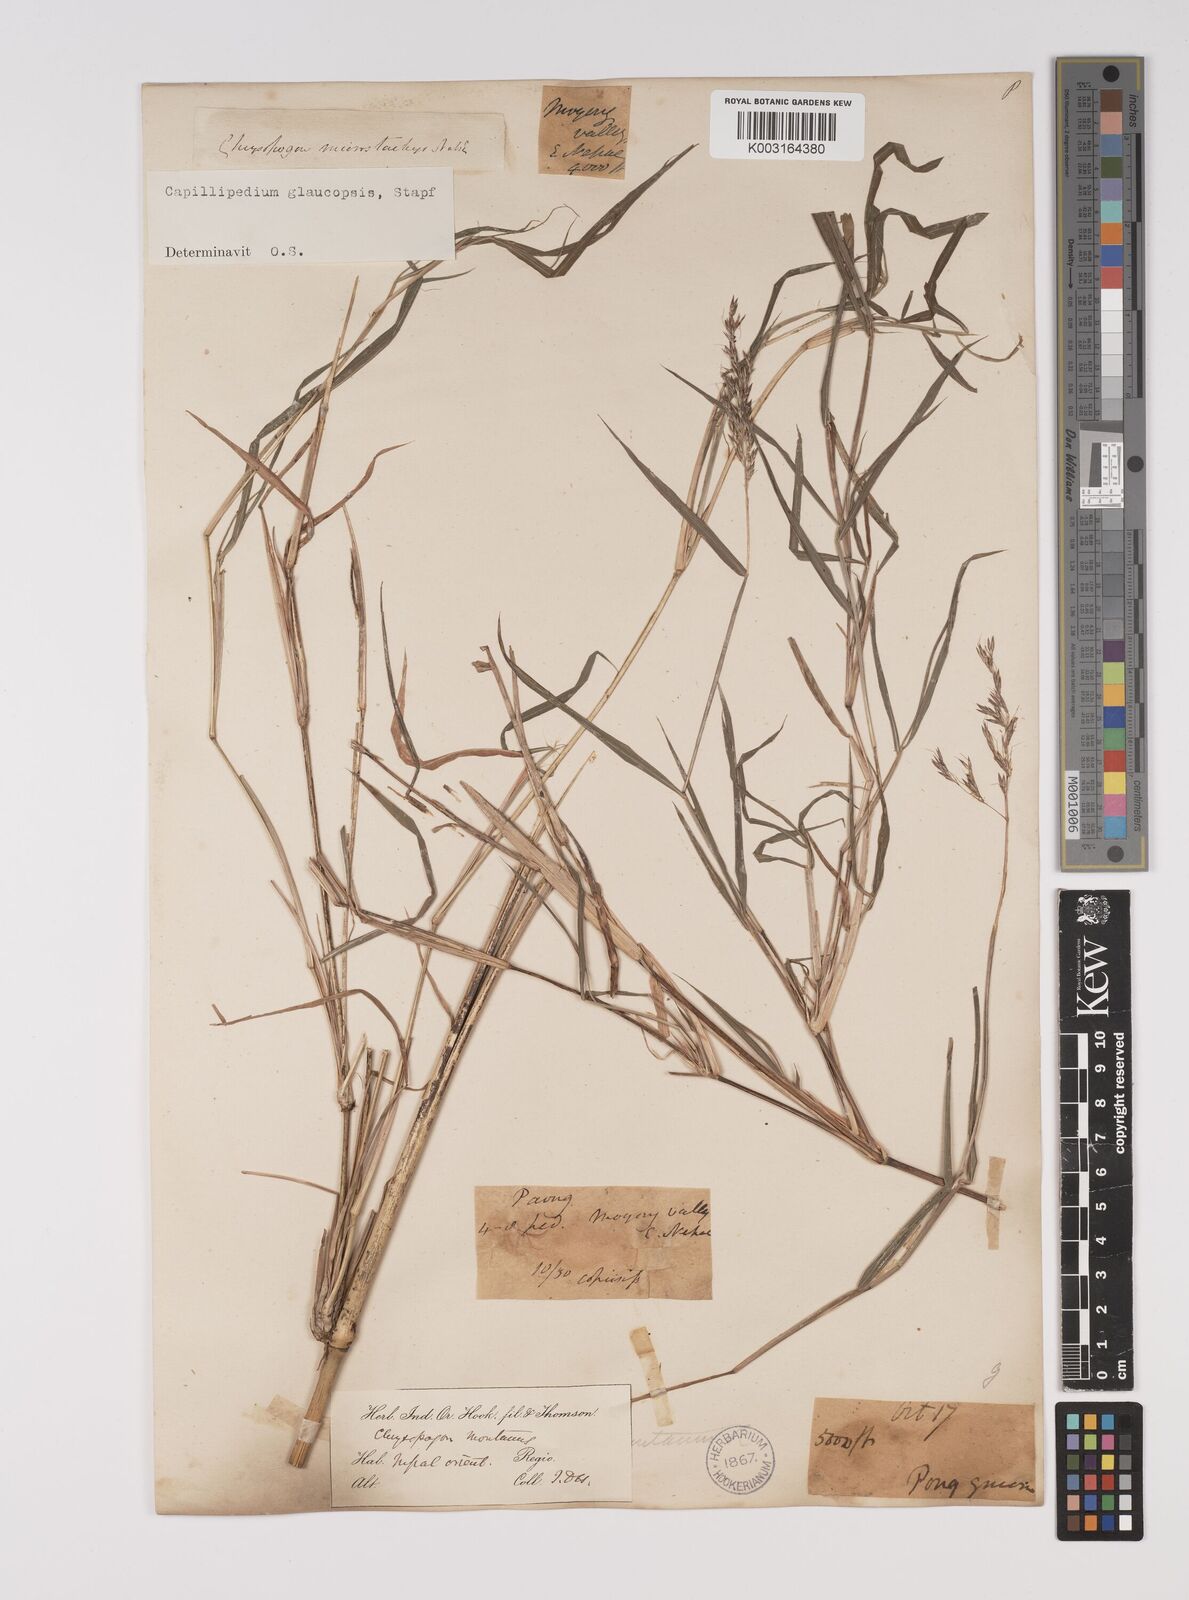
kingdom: Plantae
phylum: Tracheophyta
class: Liliopsida
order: Poales
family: Poaceae
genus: Capillipedium
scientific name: Capillipedium assimile
